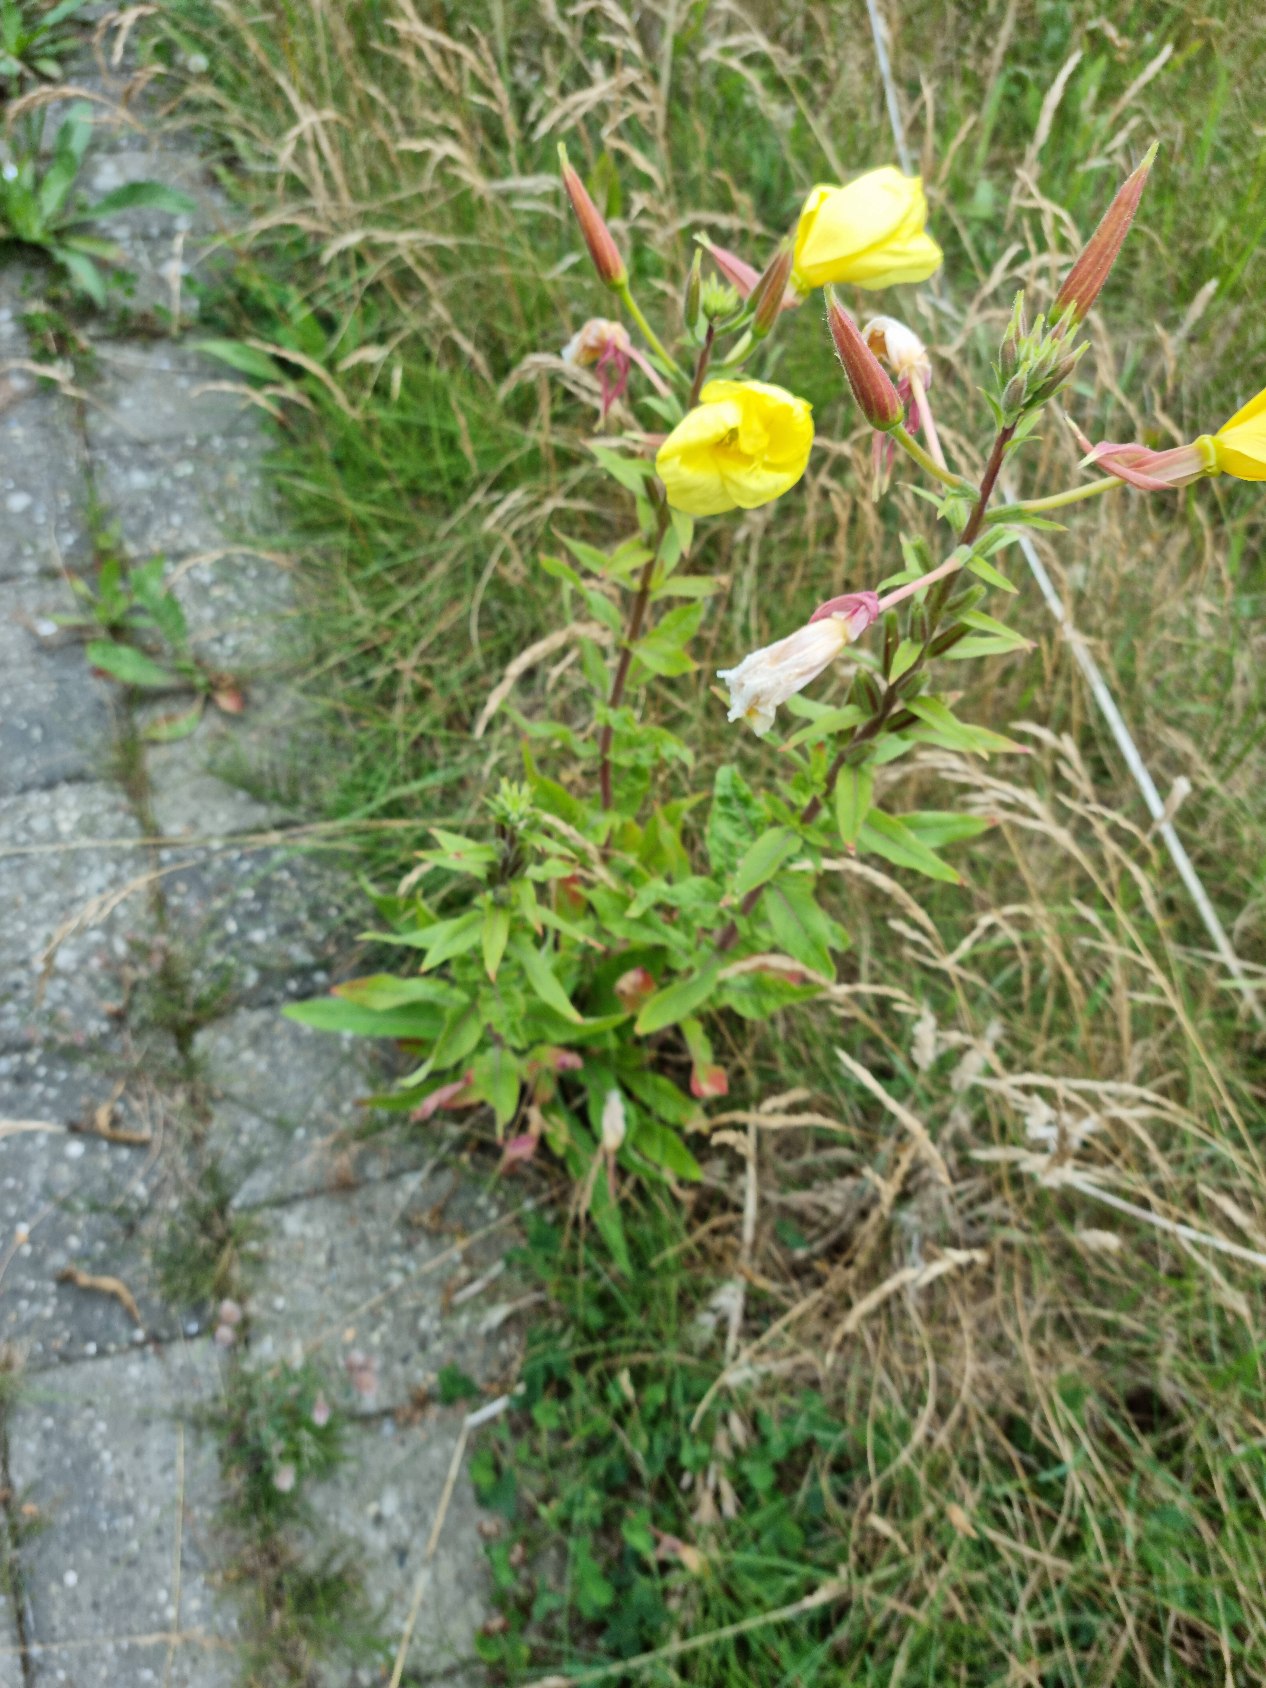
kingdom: Plantae
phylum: Tracheophyta
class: Magnoliopsida
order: Myrtales
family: Onagraceae
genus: Oenothera
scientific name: Oenothera glazioviana
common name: Kæmpe-natlys
